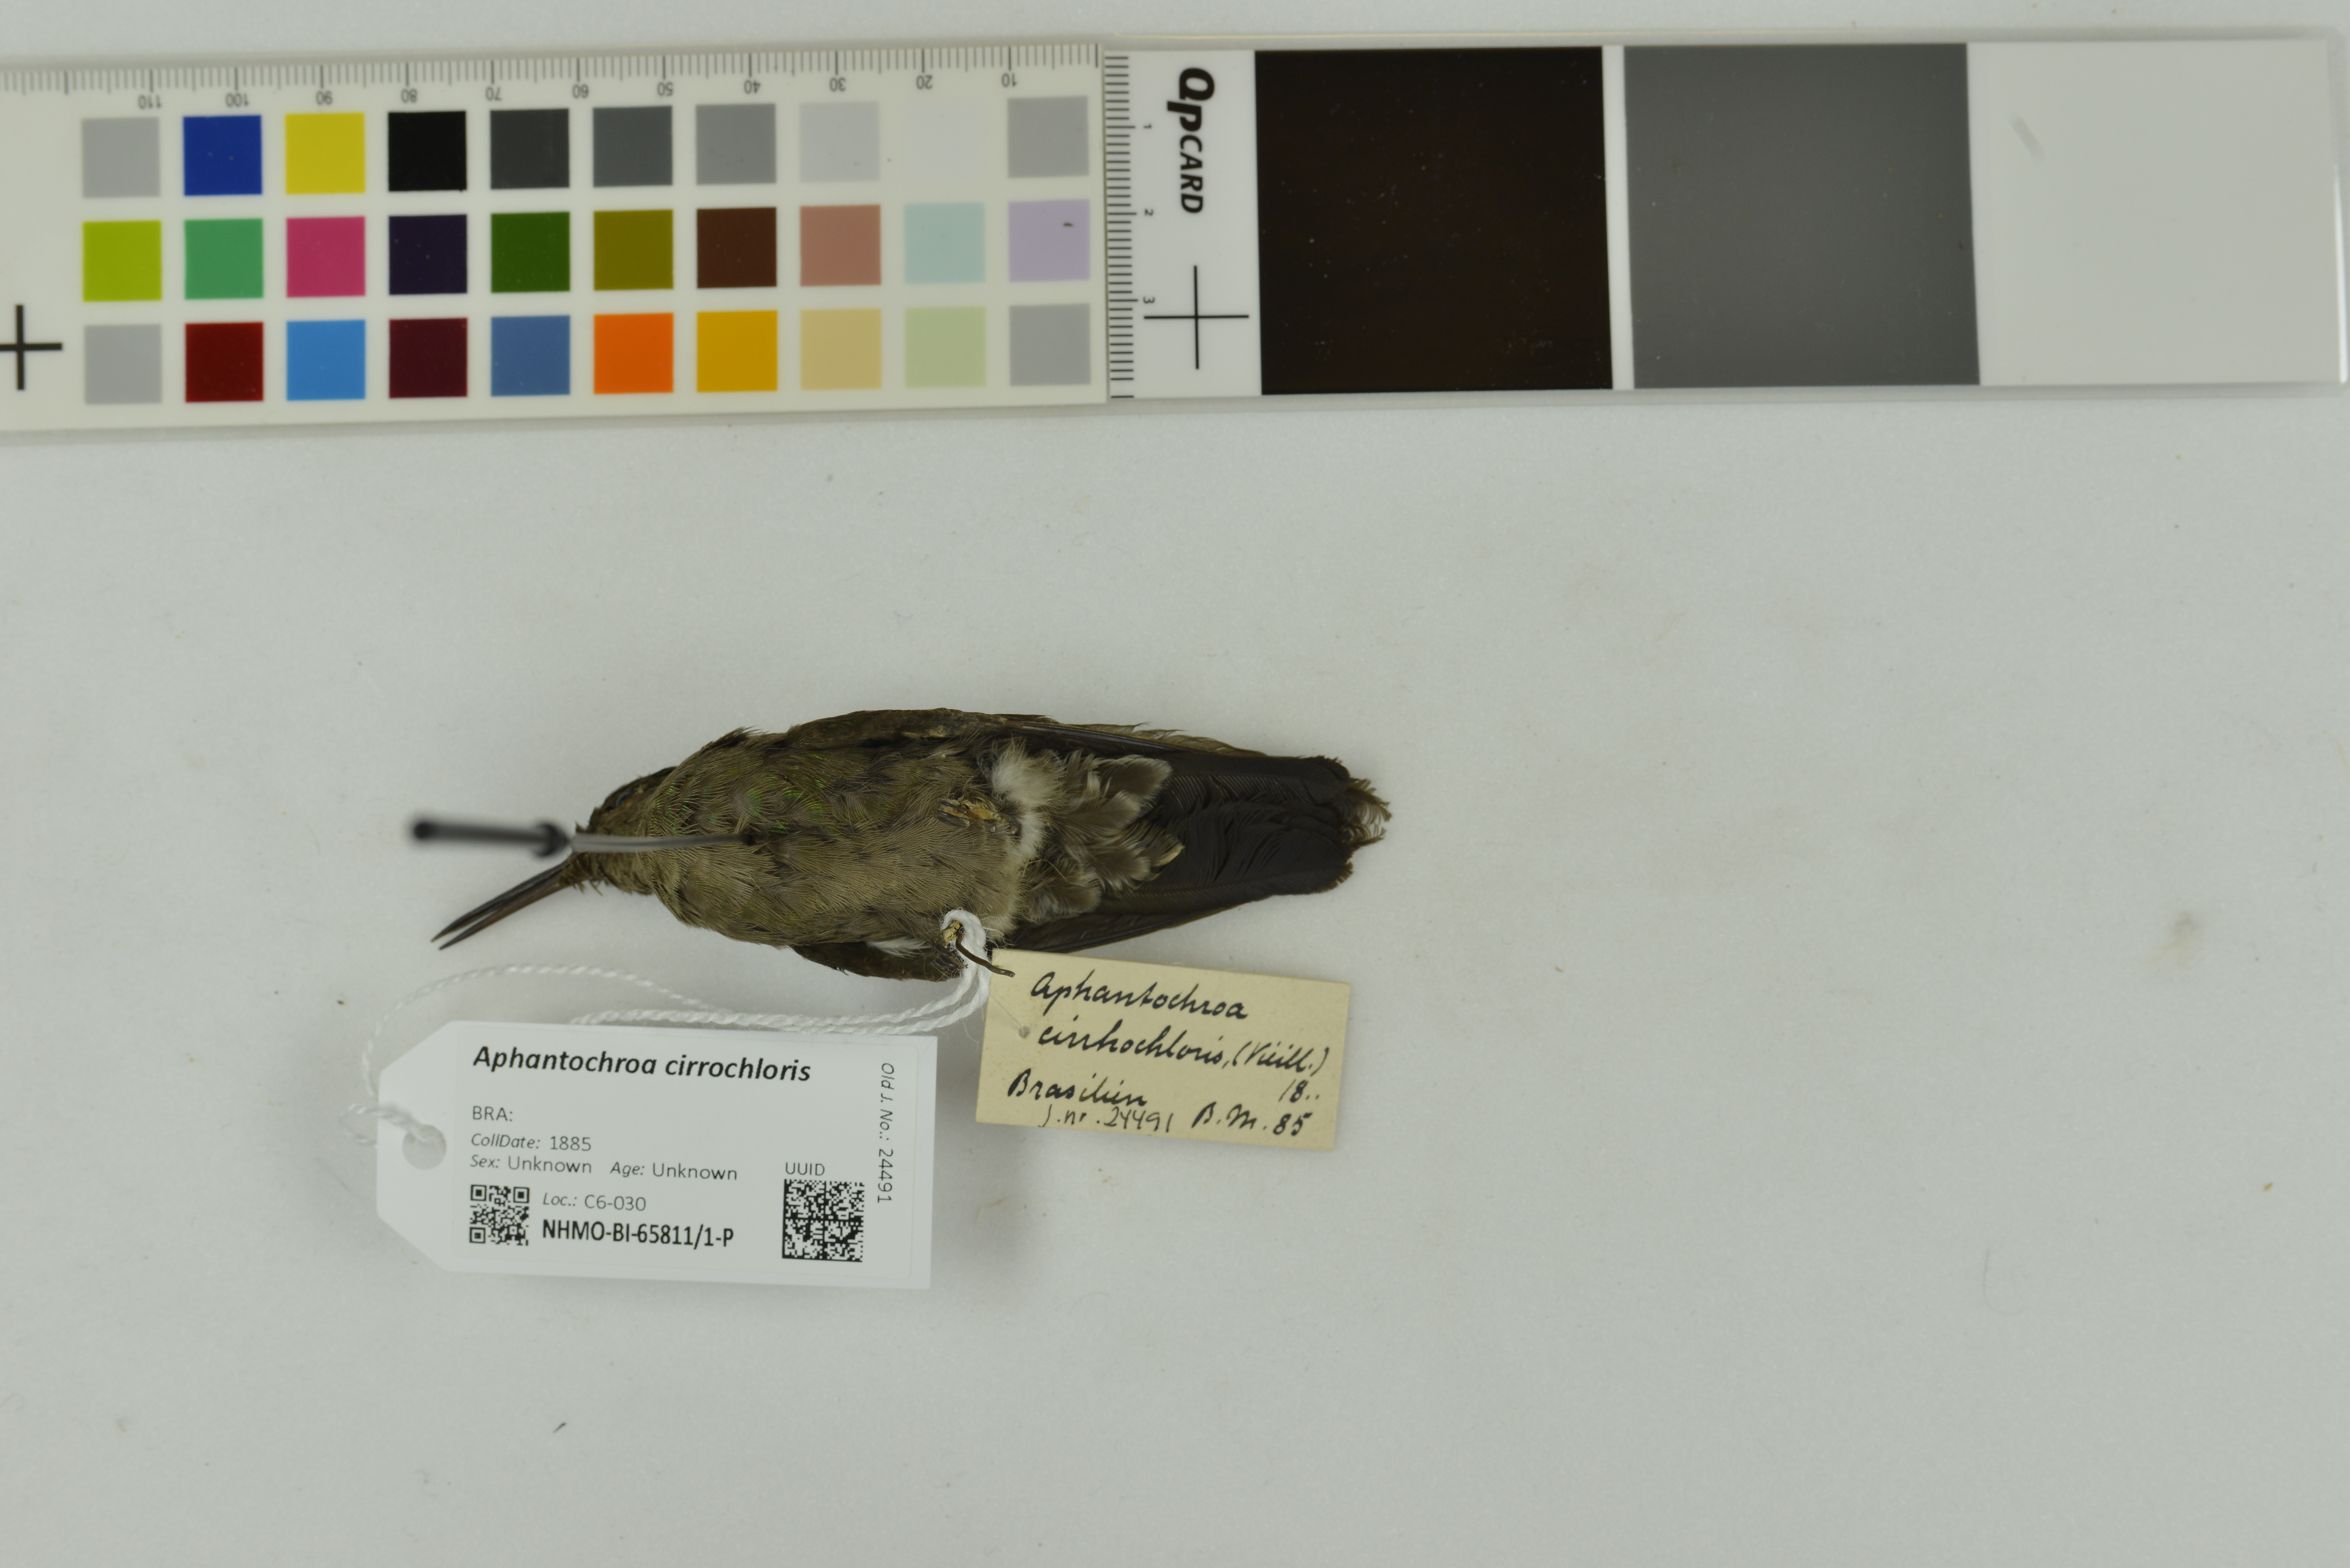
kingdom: Animalia
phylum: Chordata
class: Aves
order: Apodiformes
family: Trochilidae
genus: Eupetomena
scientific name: Eupetomena cirrochloris
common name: Sombre hummingbird
